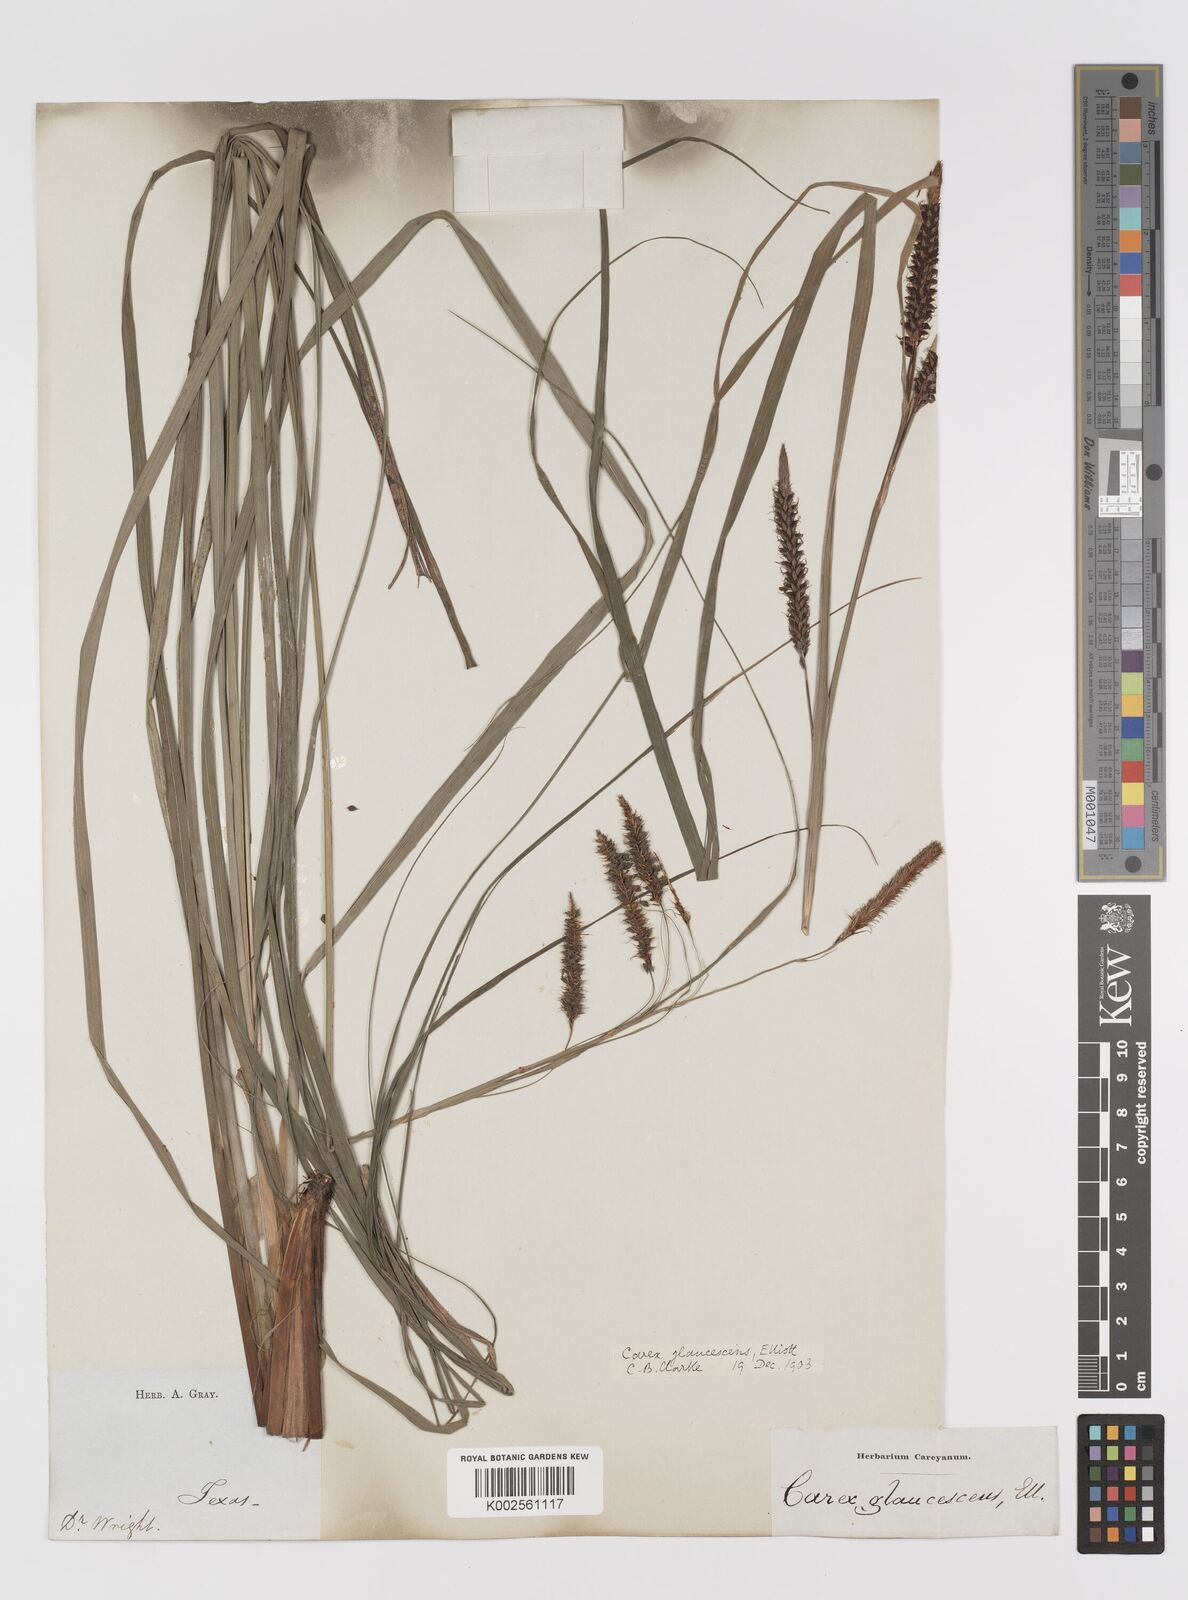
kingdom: Plantae
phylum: Tracheophyta
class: Liliopsida
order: Poales
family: Cyperaceae
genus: Carex
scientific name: Carex glaucescens
